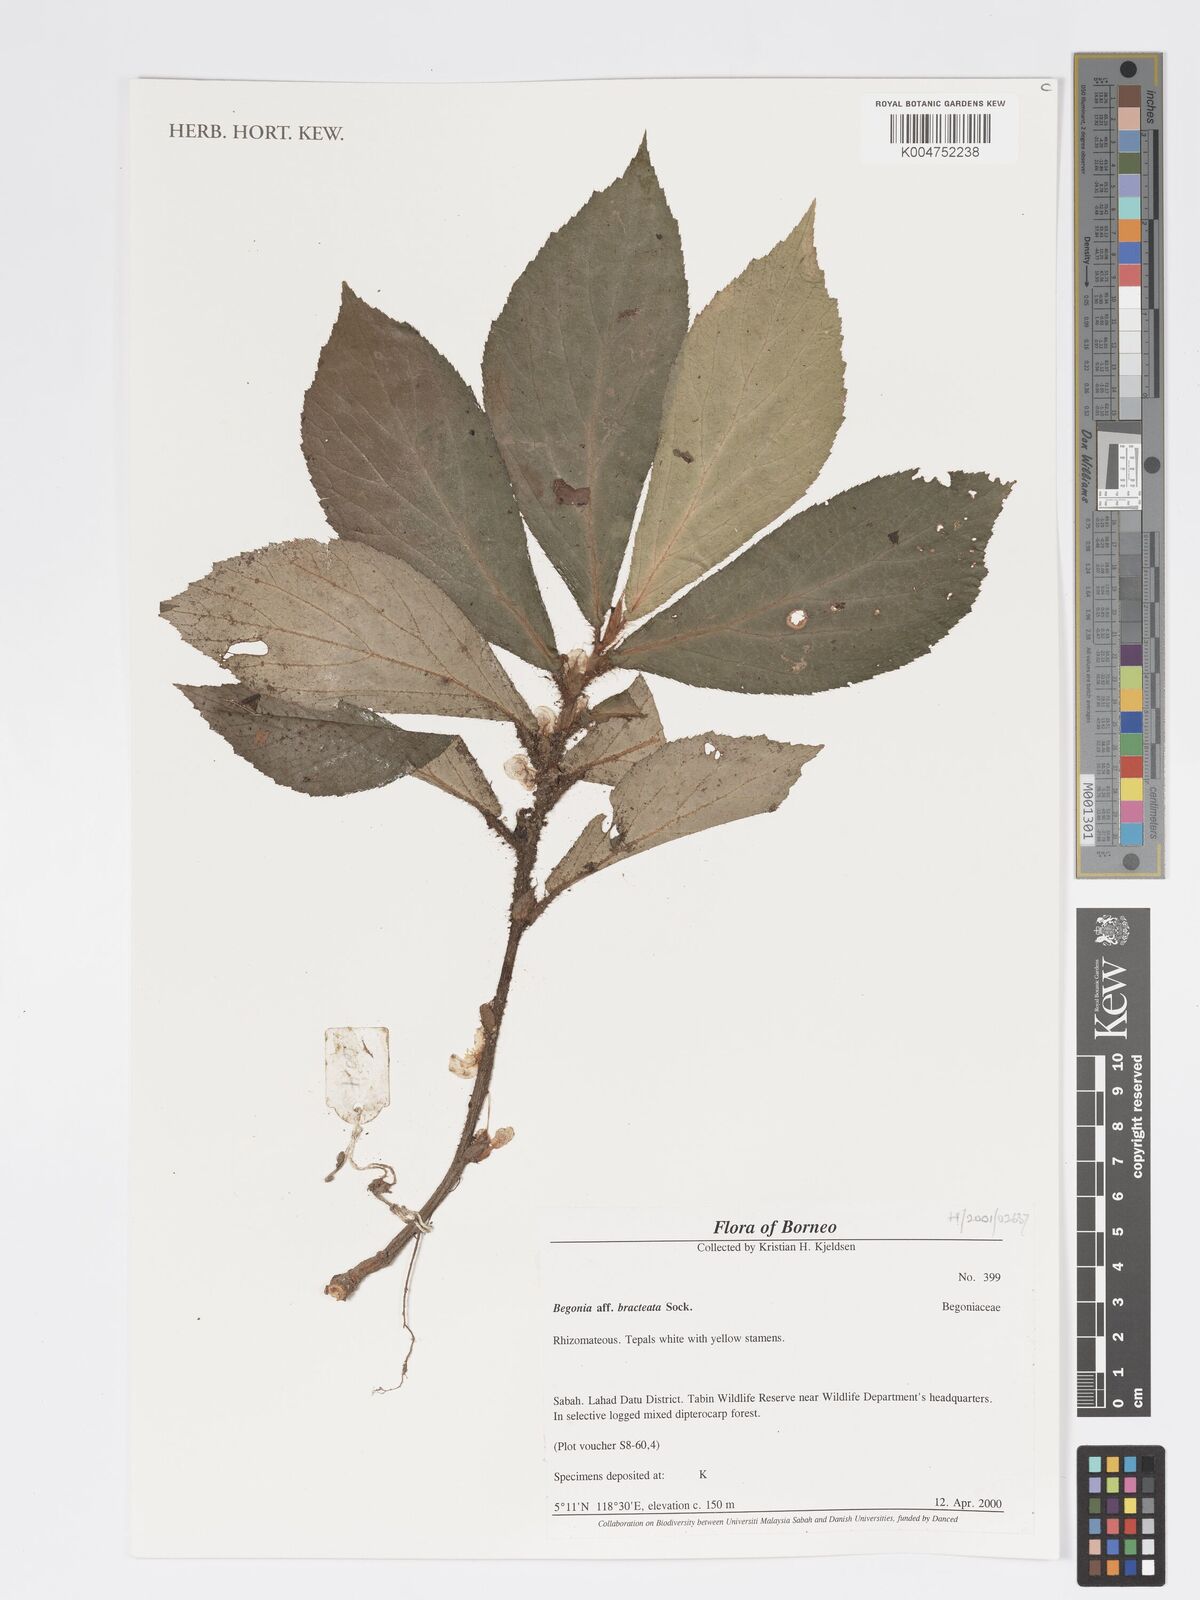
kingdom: Plantae
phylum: Tracheophyta
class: Magnoliopsida
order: Cucurbitales
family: Begoniaceae
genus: Begonia
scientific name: Begonia cauliflora
